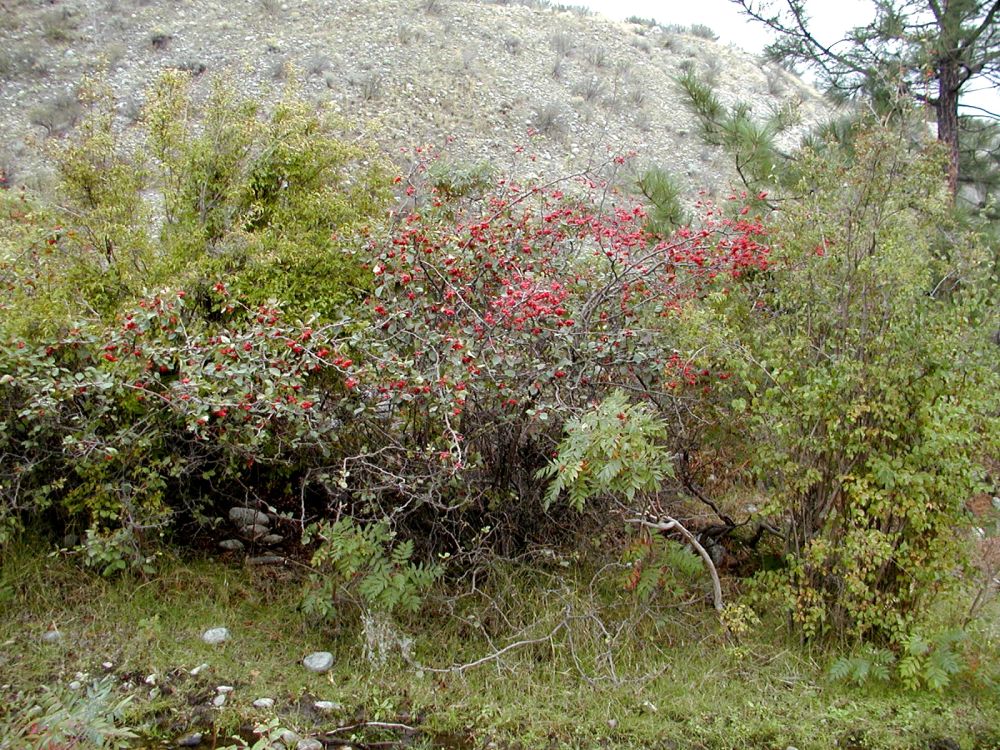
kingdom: Plantae
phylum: Tracheophyta
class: Magnoliopsida
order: Rosales
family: Rosaceae
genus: Crataegus
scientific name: Crataegus douglasii
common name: Black hawthorn
